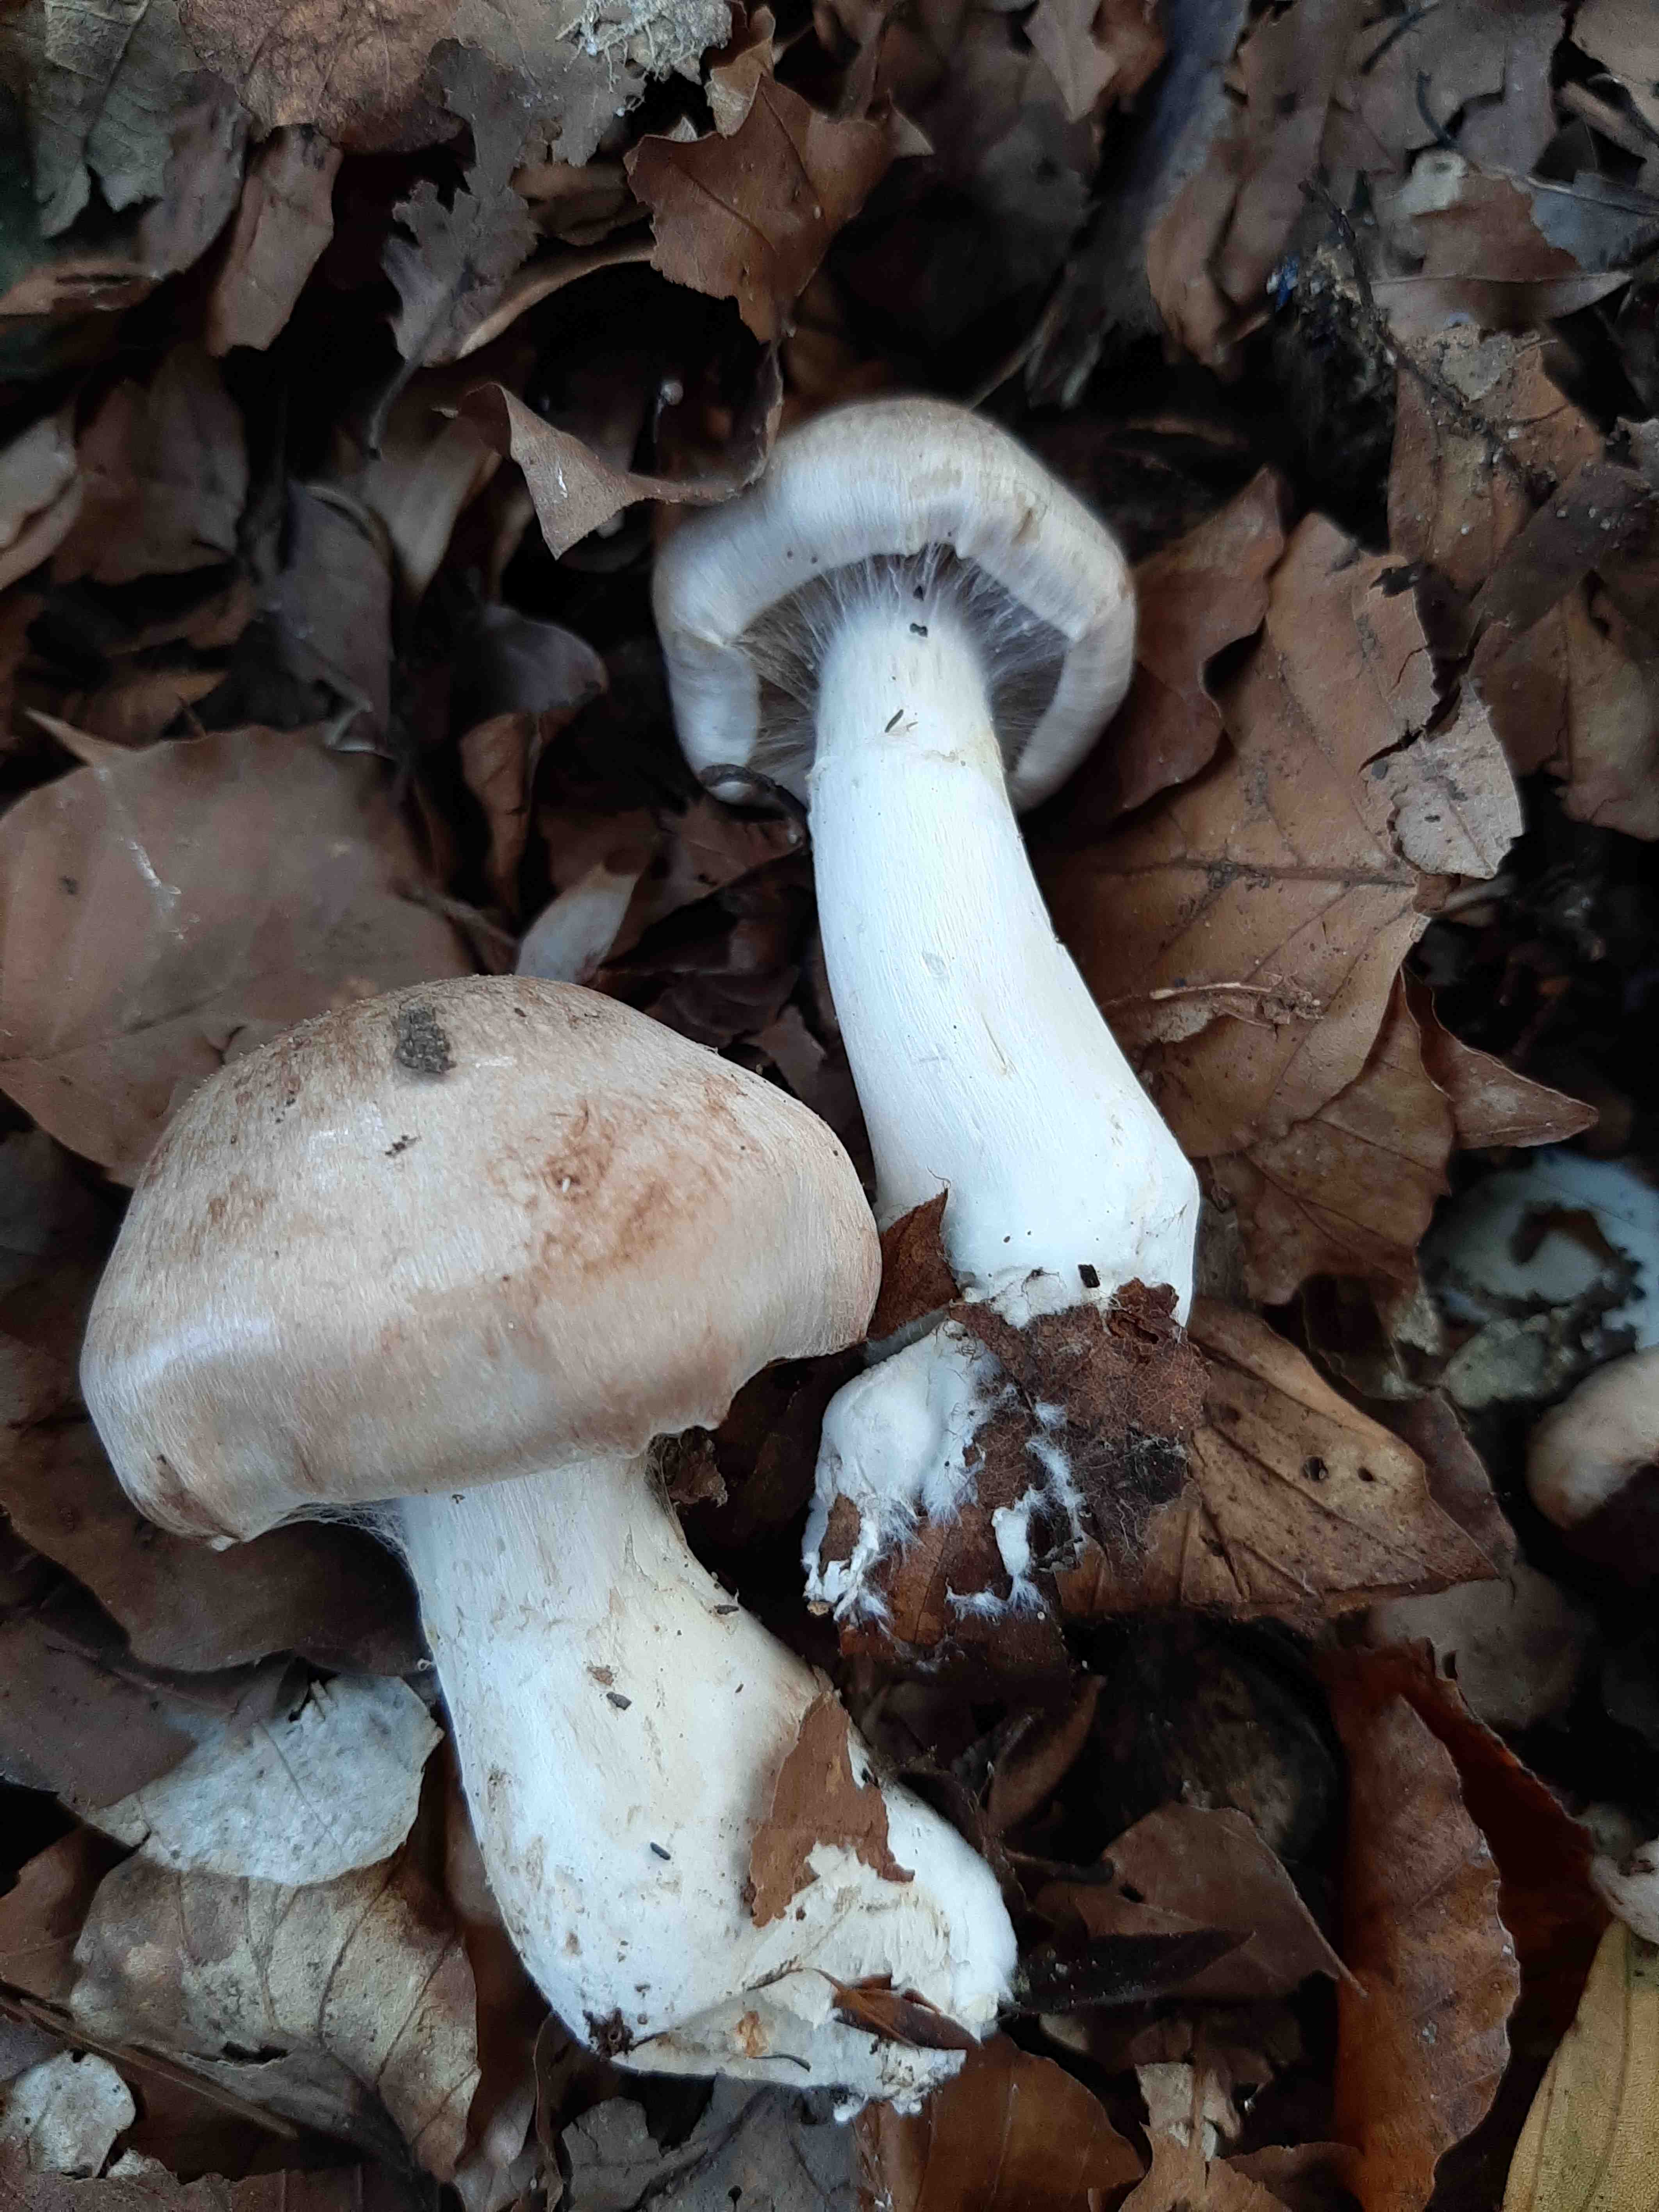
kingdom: Fungi
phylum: Basidiomycota
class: Agaricomycetes
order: Agaricales
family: Cortinariaceae
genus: Cortinarius
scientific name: Cortinarius
